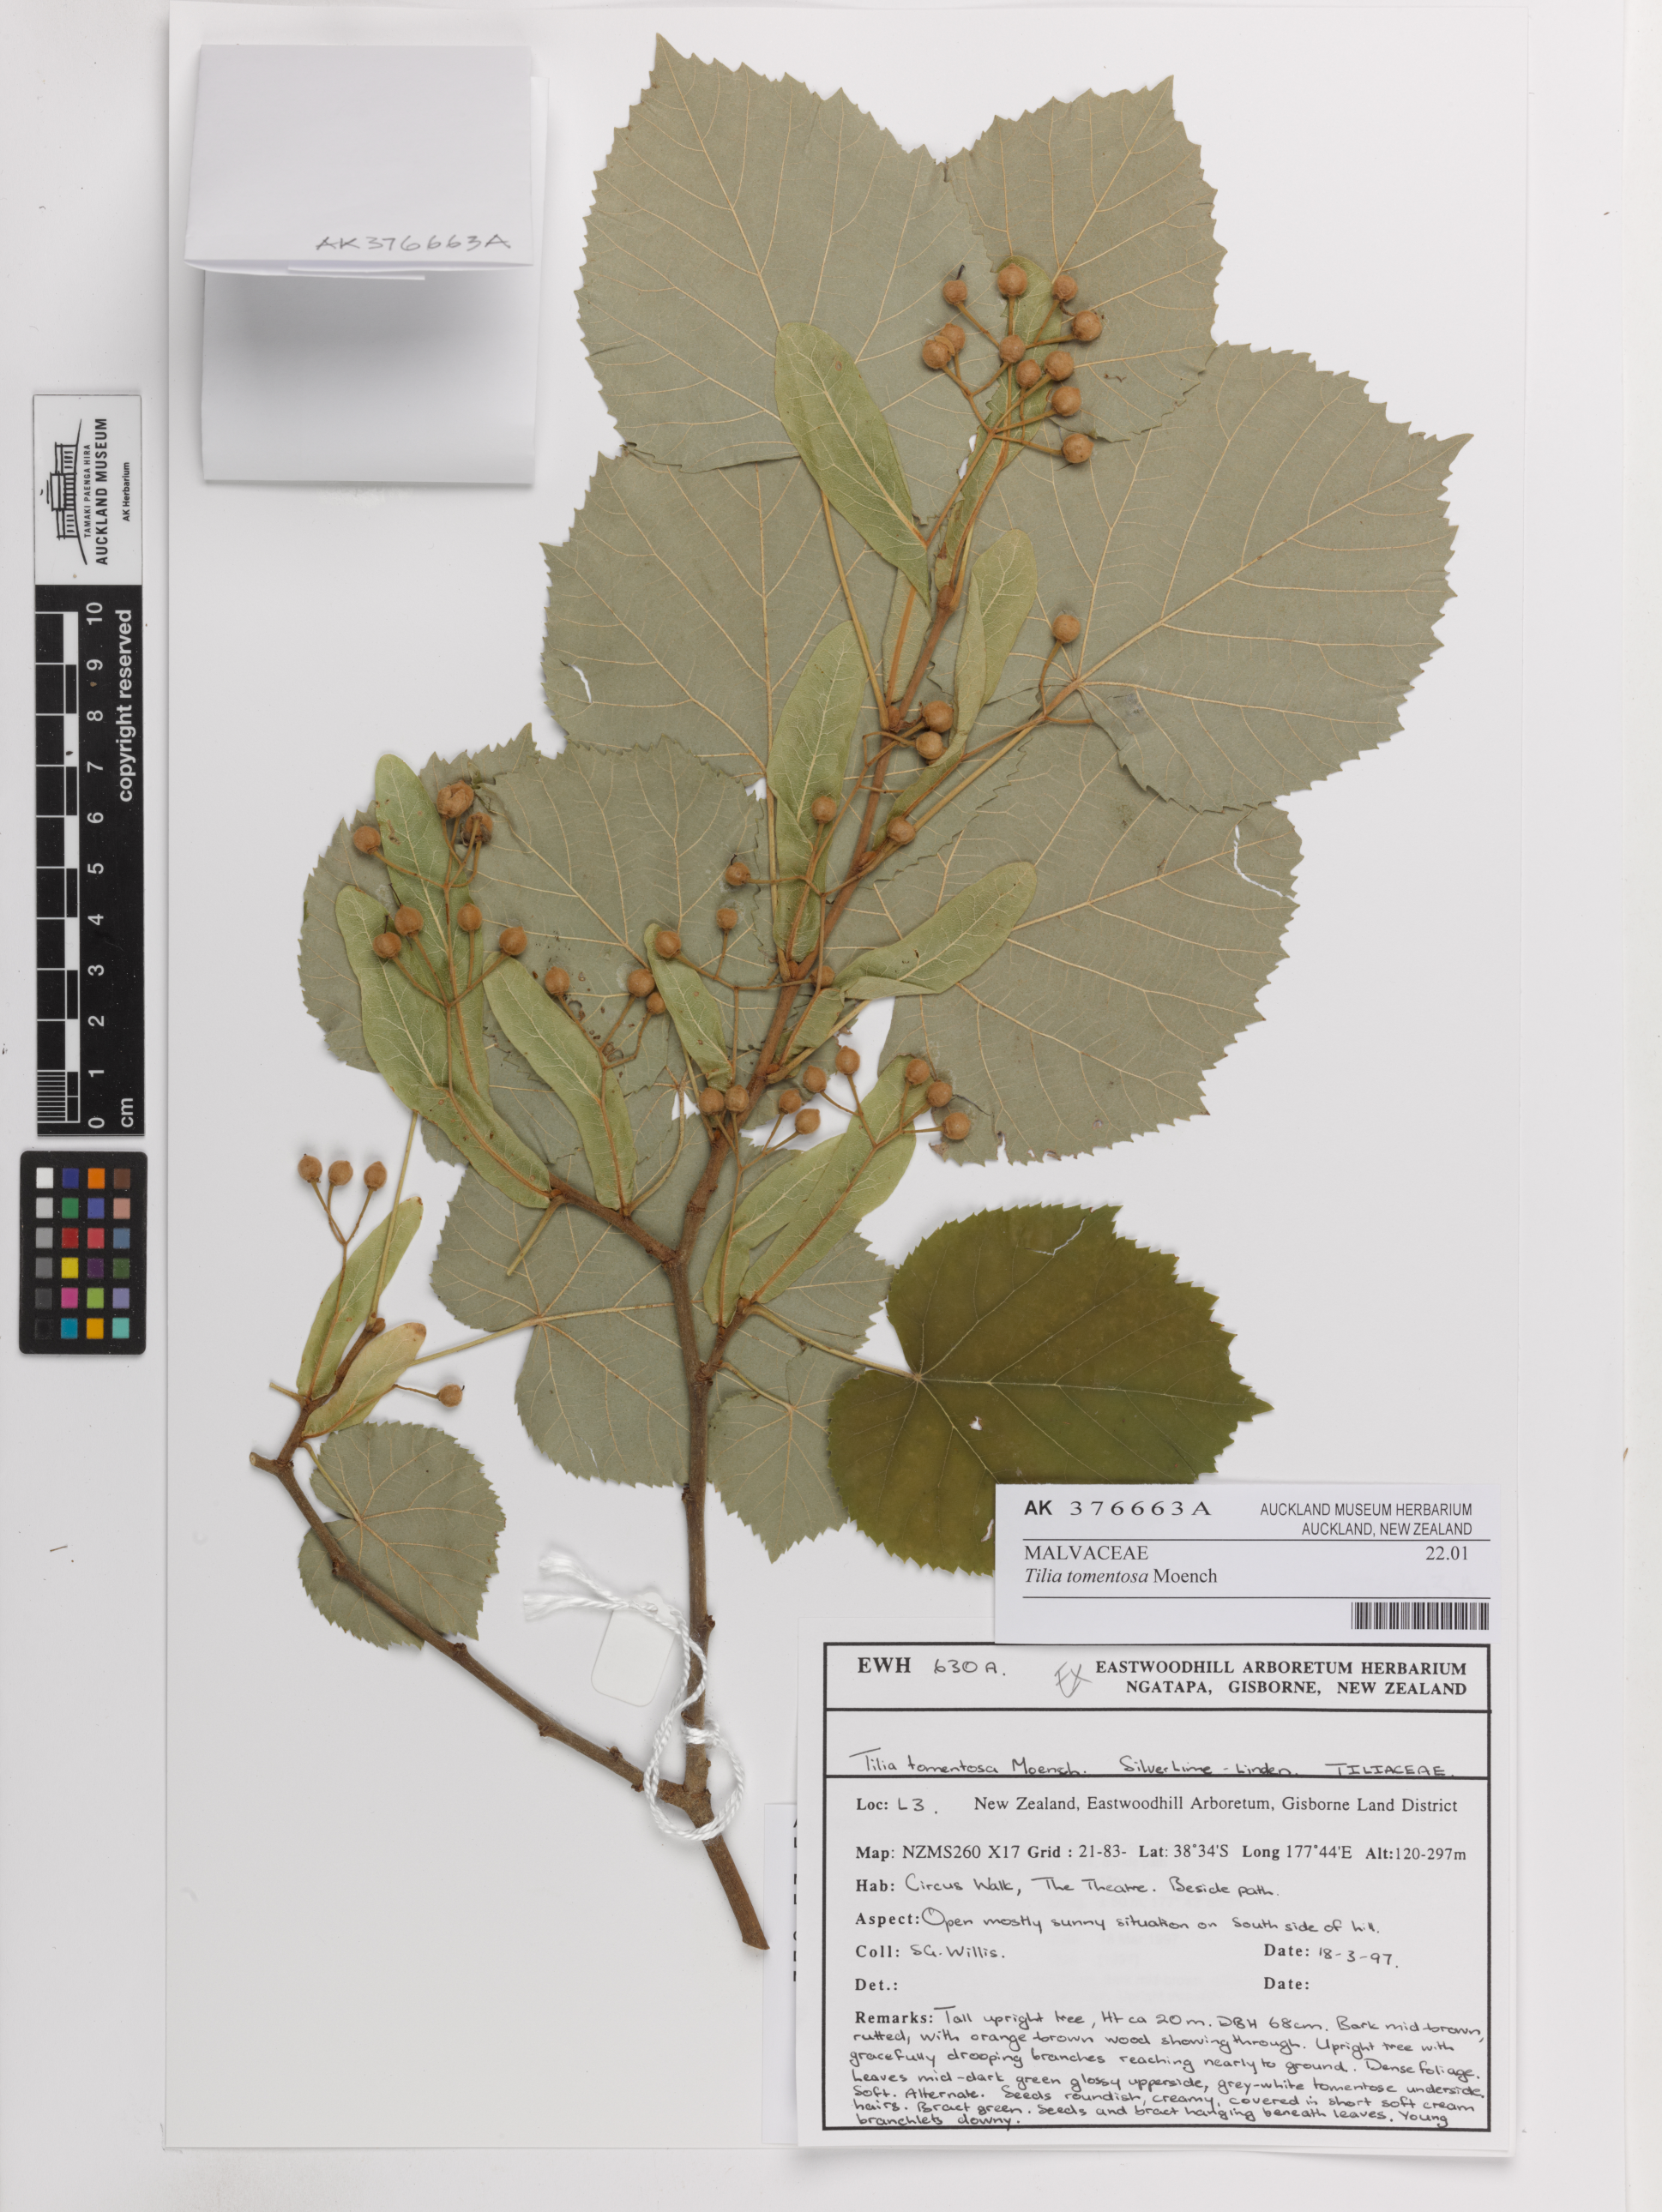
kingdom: Plantae
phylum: Tracheophyta
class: Magnoliopsida
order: Malvales
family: Malvaceae
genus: Tilia
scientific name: Tilia tomentosa
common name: Silver lime
